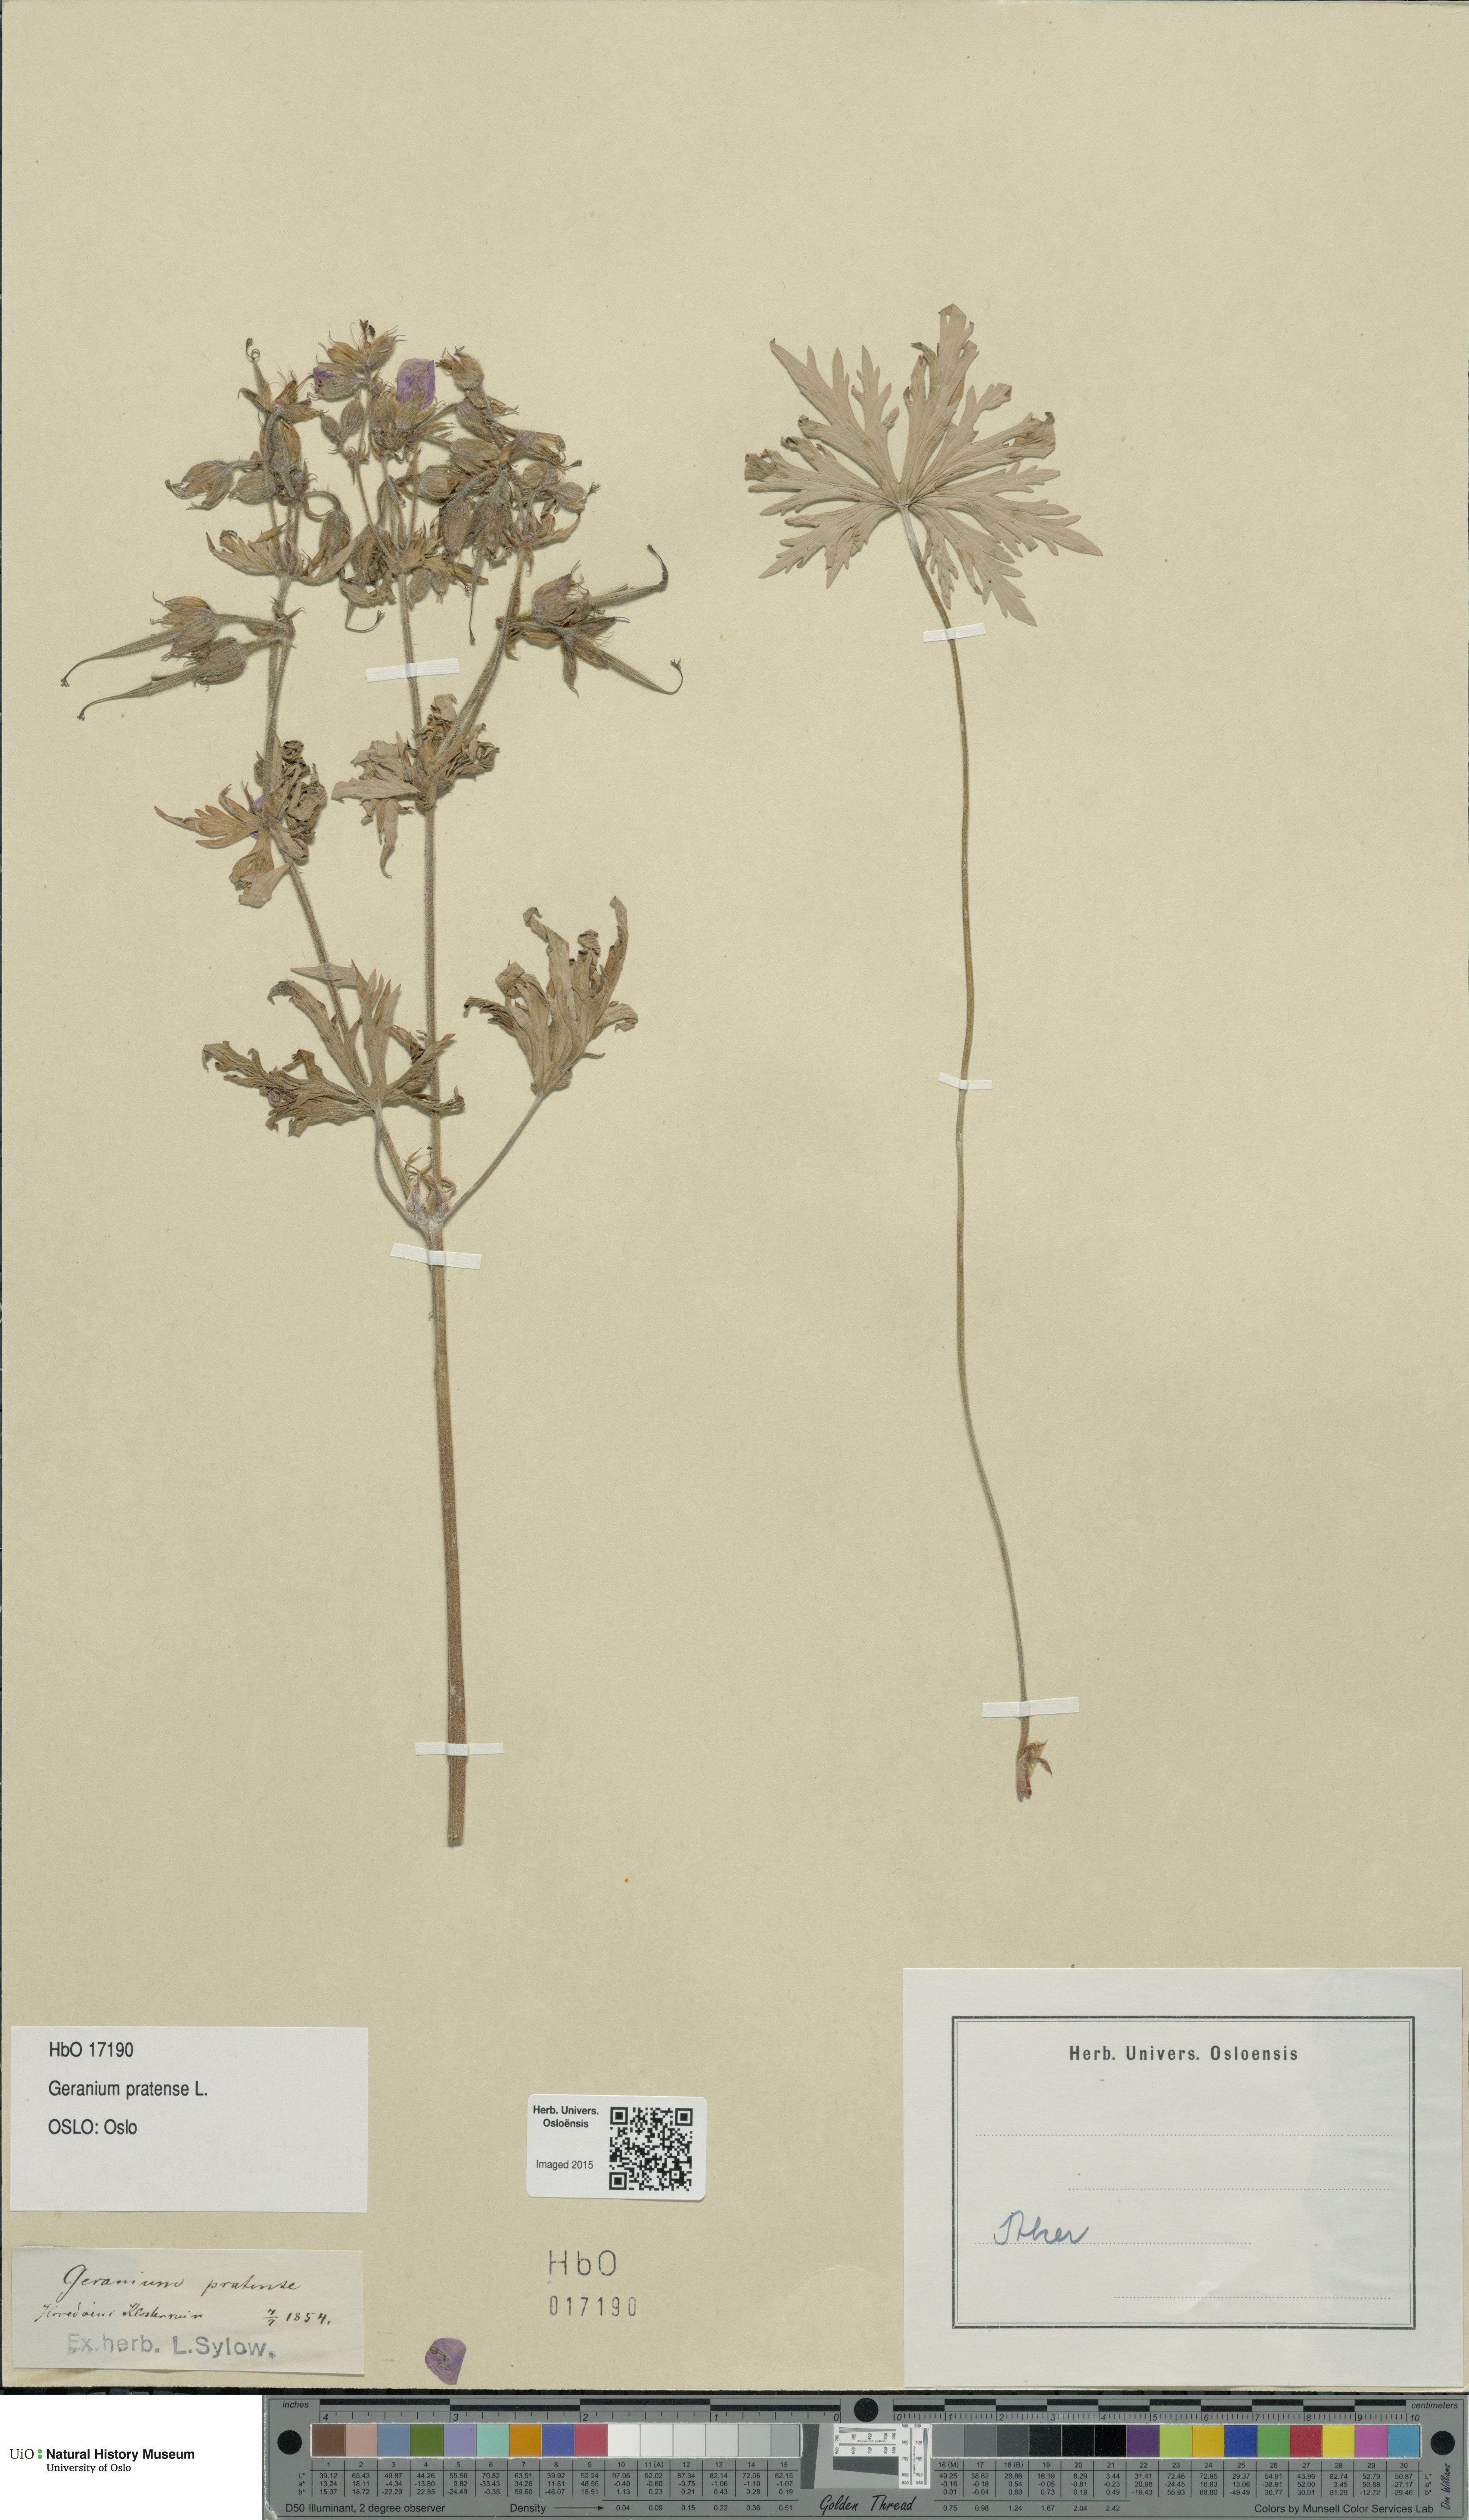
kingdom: Plantae
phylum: Tracheophyta
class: Magnoliopsida
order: Geraniales
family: Geraniaceae
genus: Geranium
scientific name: Geranium pratense
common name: Meadow crane's-bill
